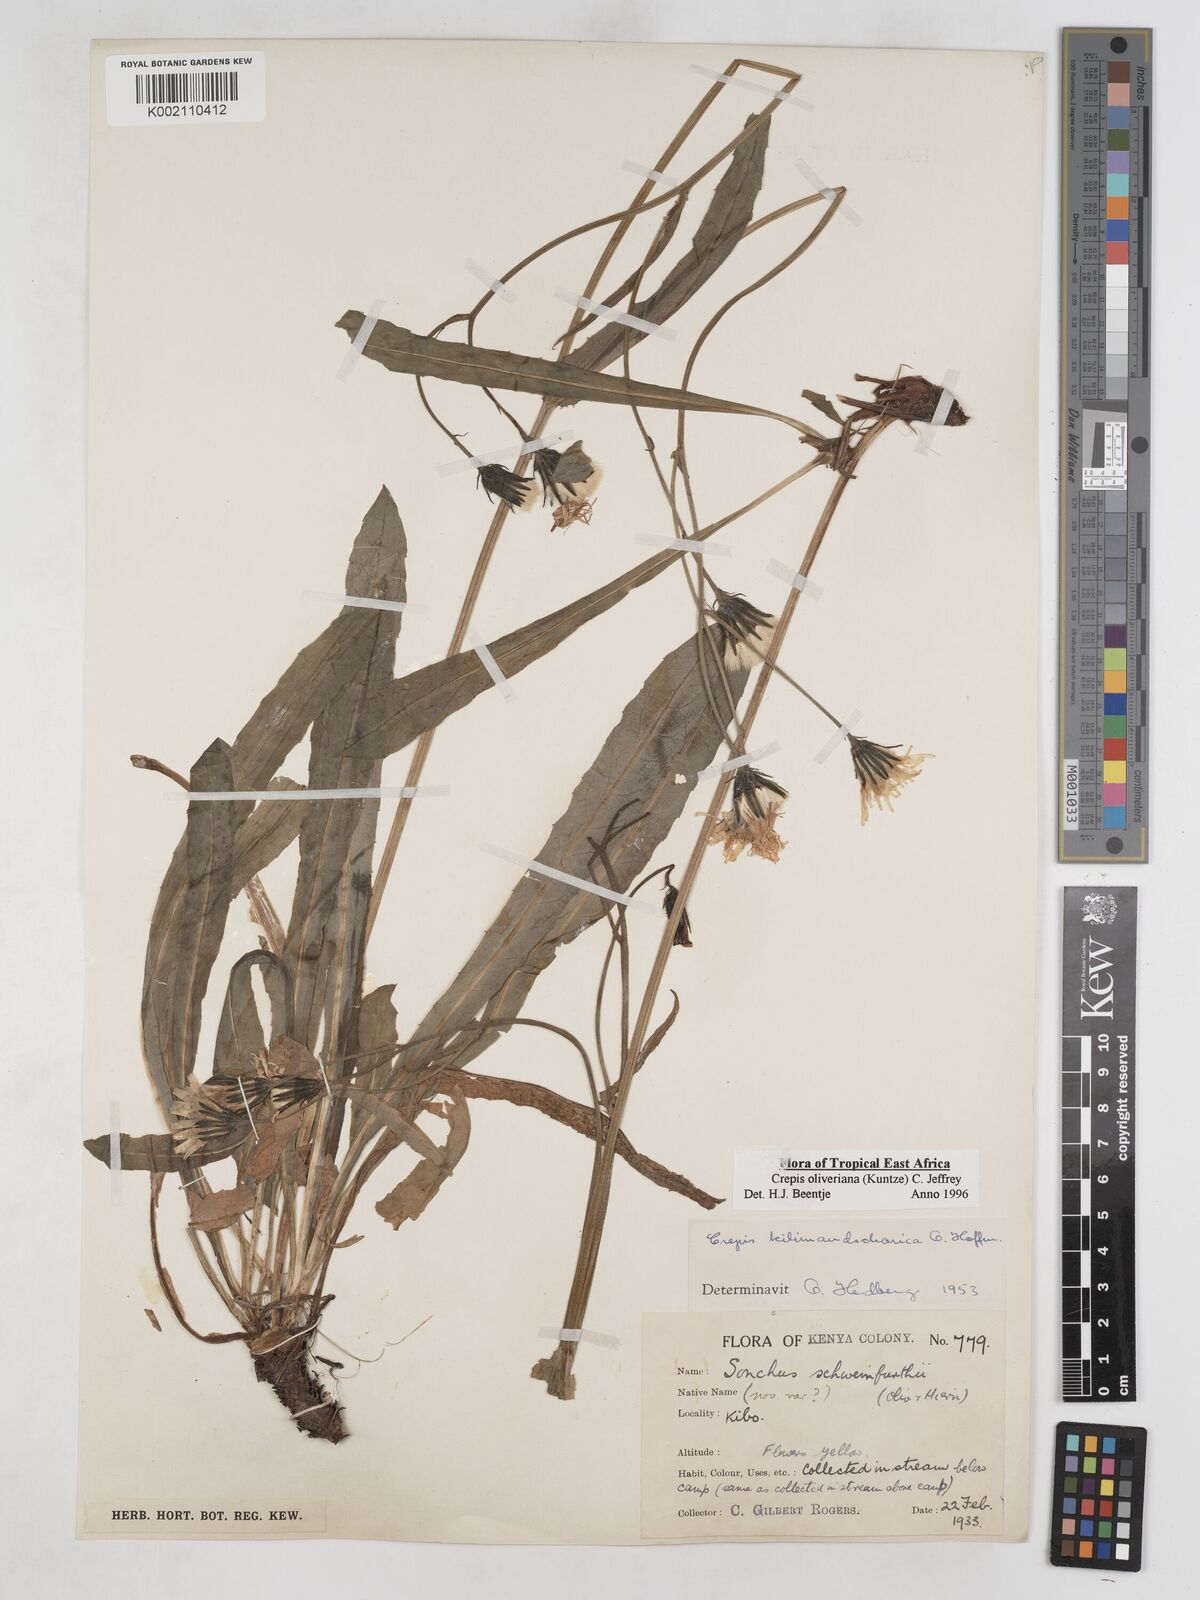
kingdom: Plantae
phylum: Tracheophyta
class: Magnoliopsida
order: Asterales
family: Asteraceae
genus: Crepis
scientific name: Crepis hypochoeridea
